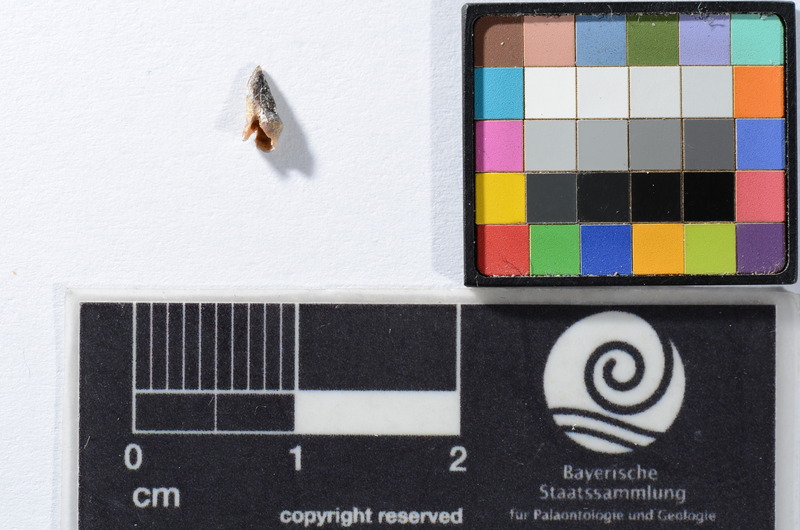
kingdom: Animalia
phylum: Chordata
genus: Soricidens
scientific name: Soricidens
